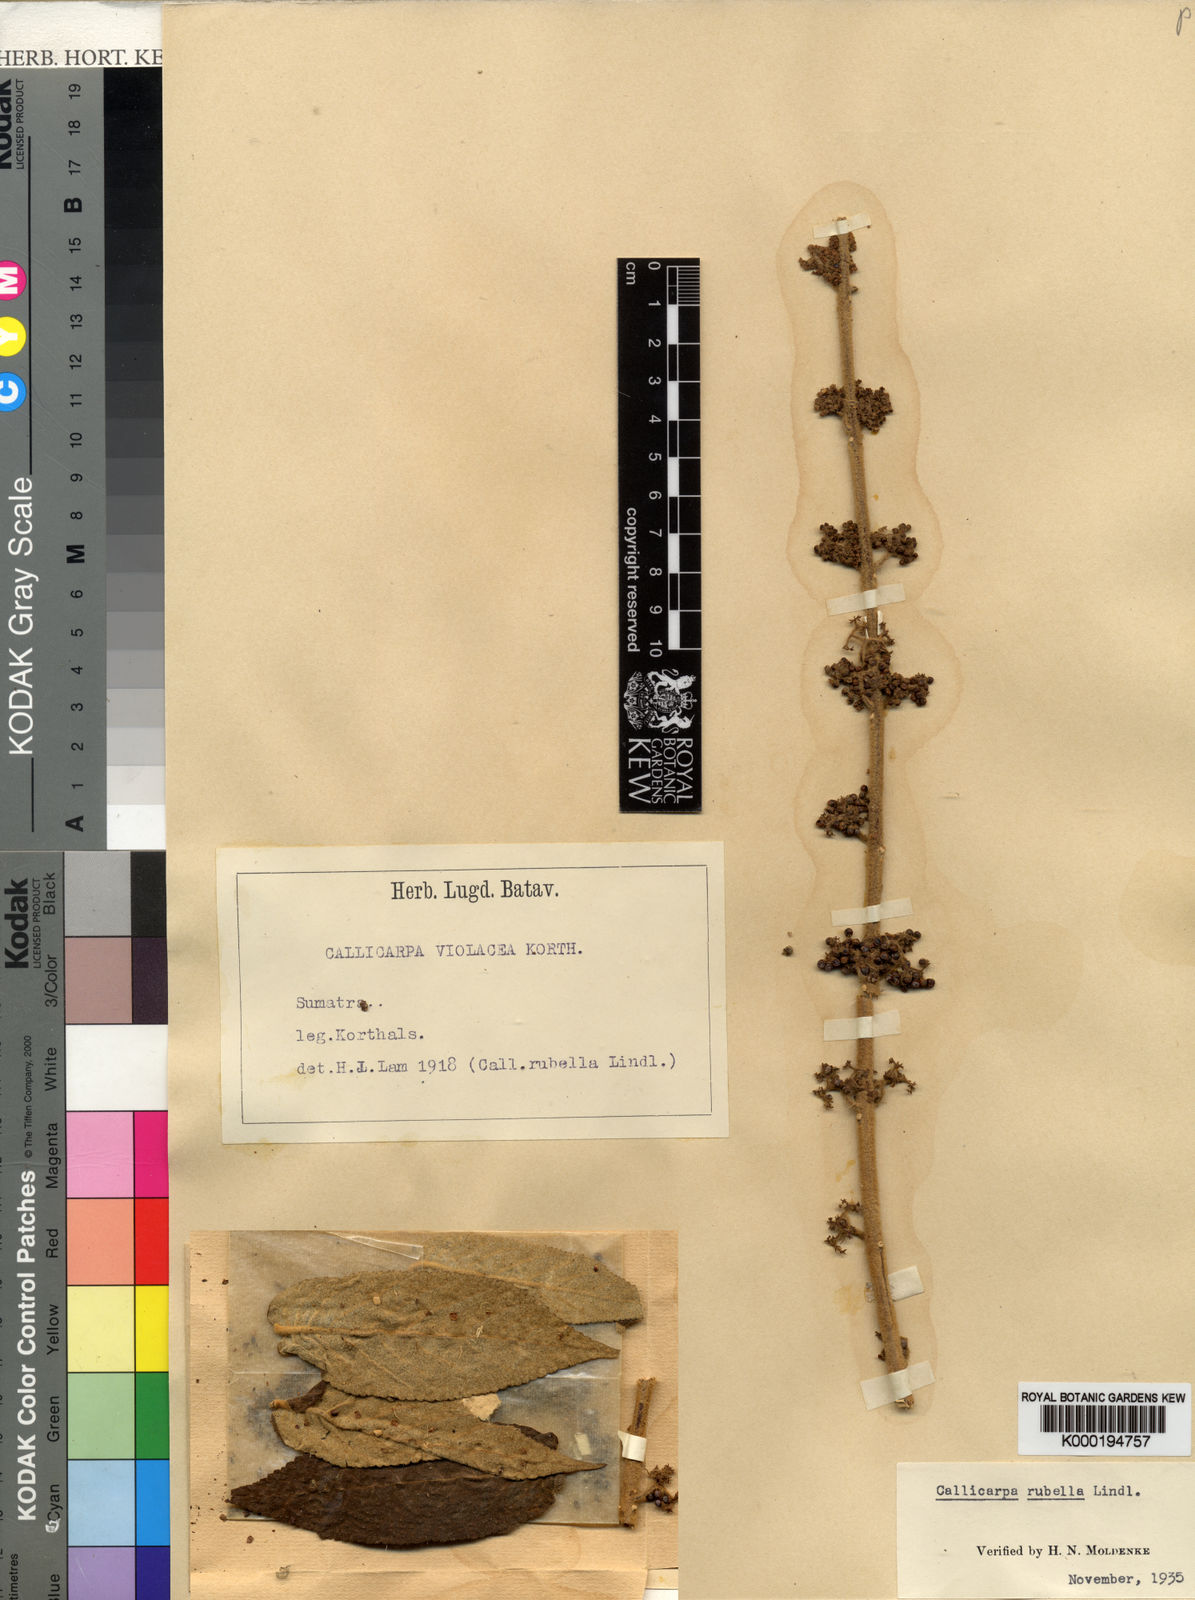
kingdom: Plantae
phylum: Tracheophyta
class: Magnoliopsida
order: Lamiales
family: Lamiaceae
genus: Callicarpa
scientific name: Callicarpa rubella
